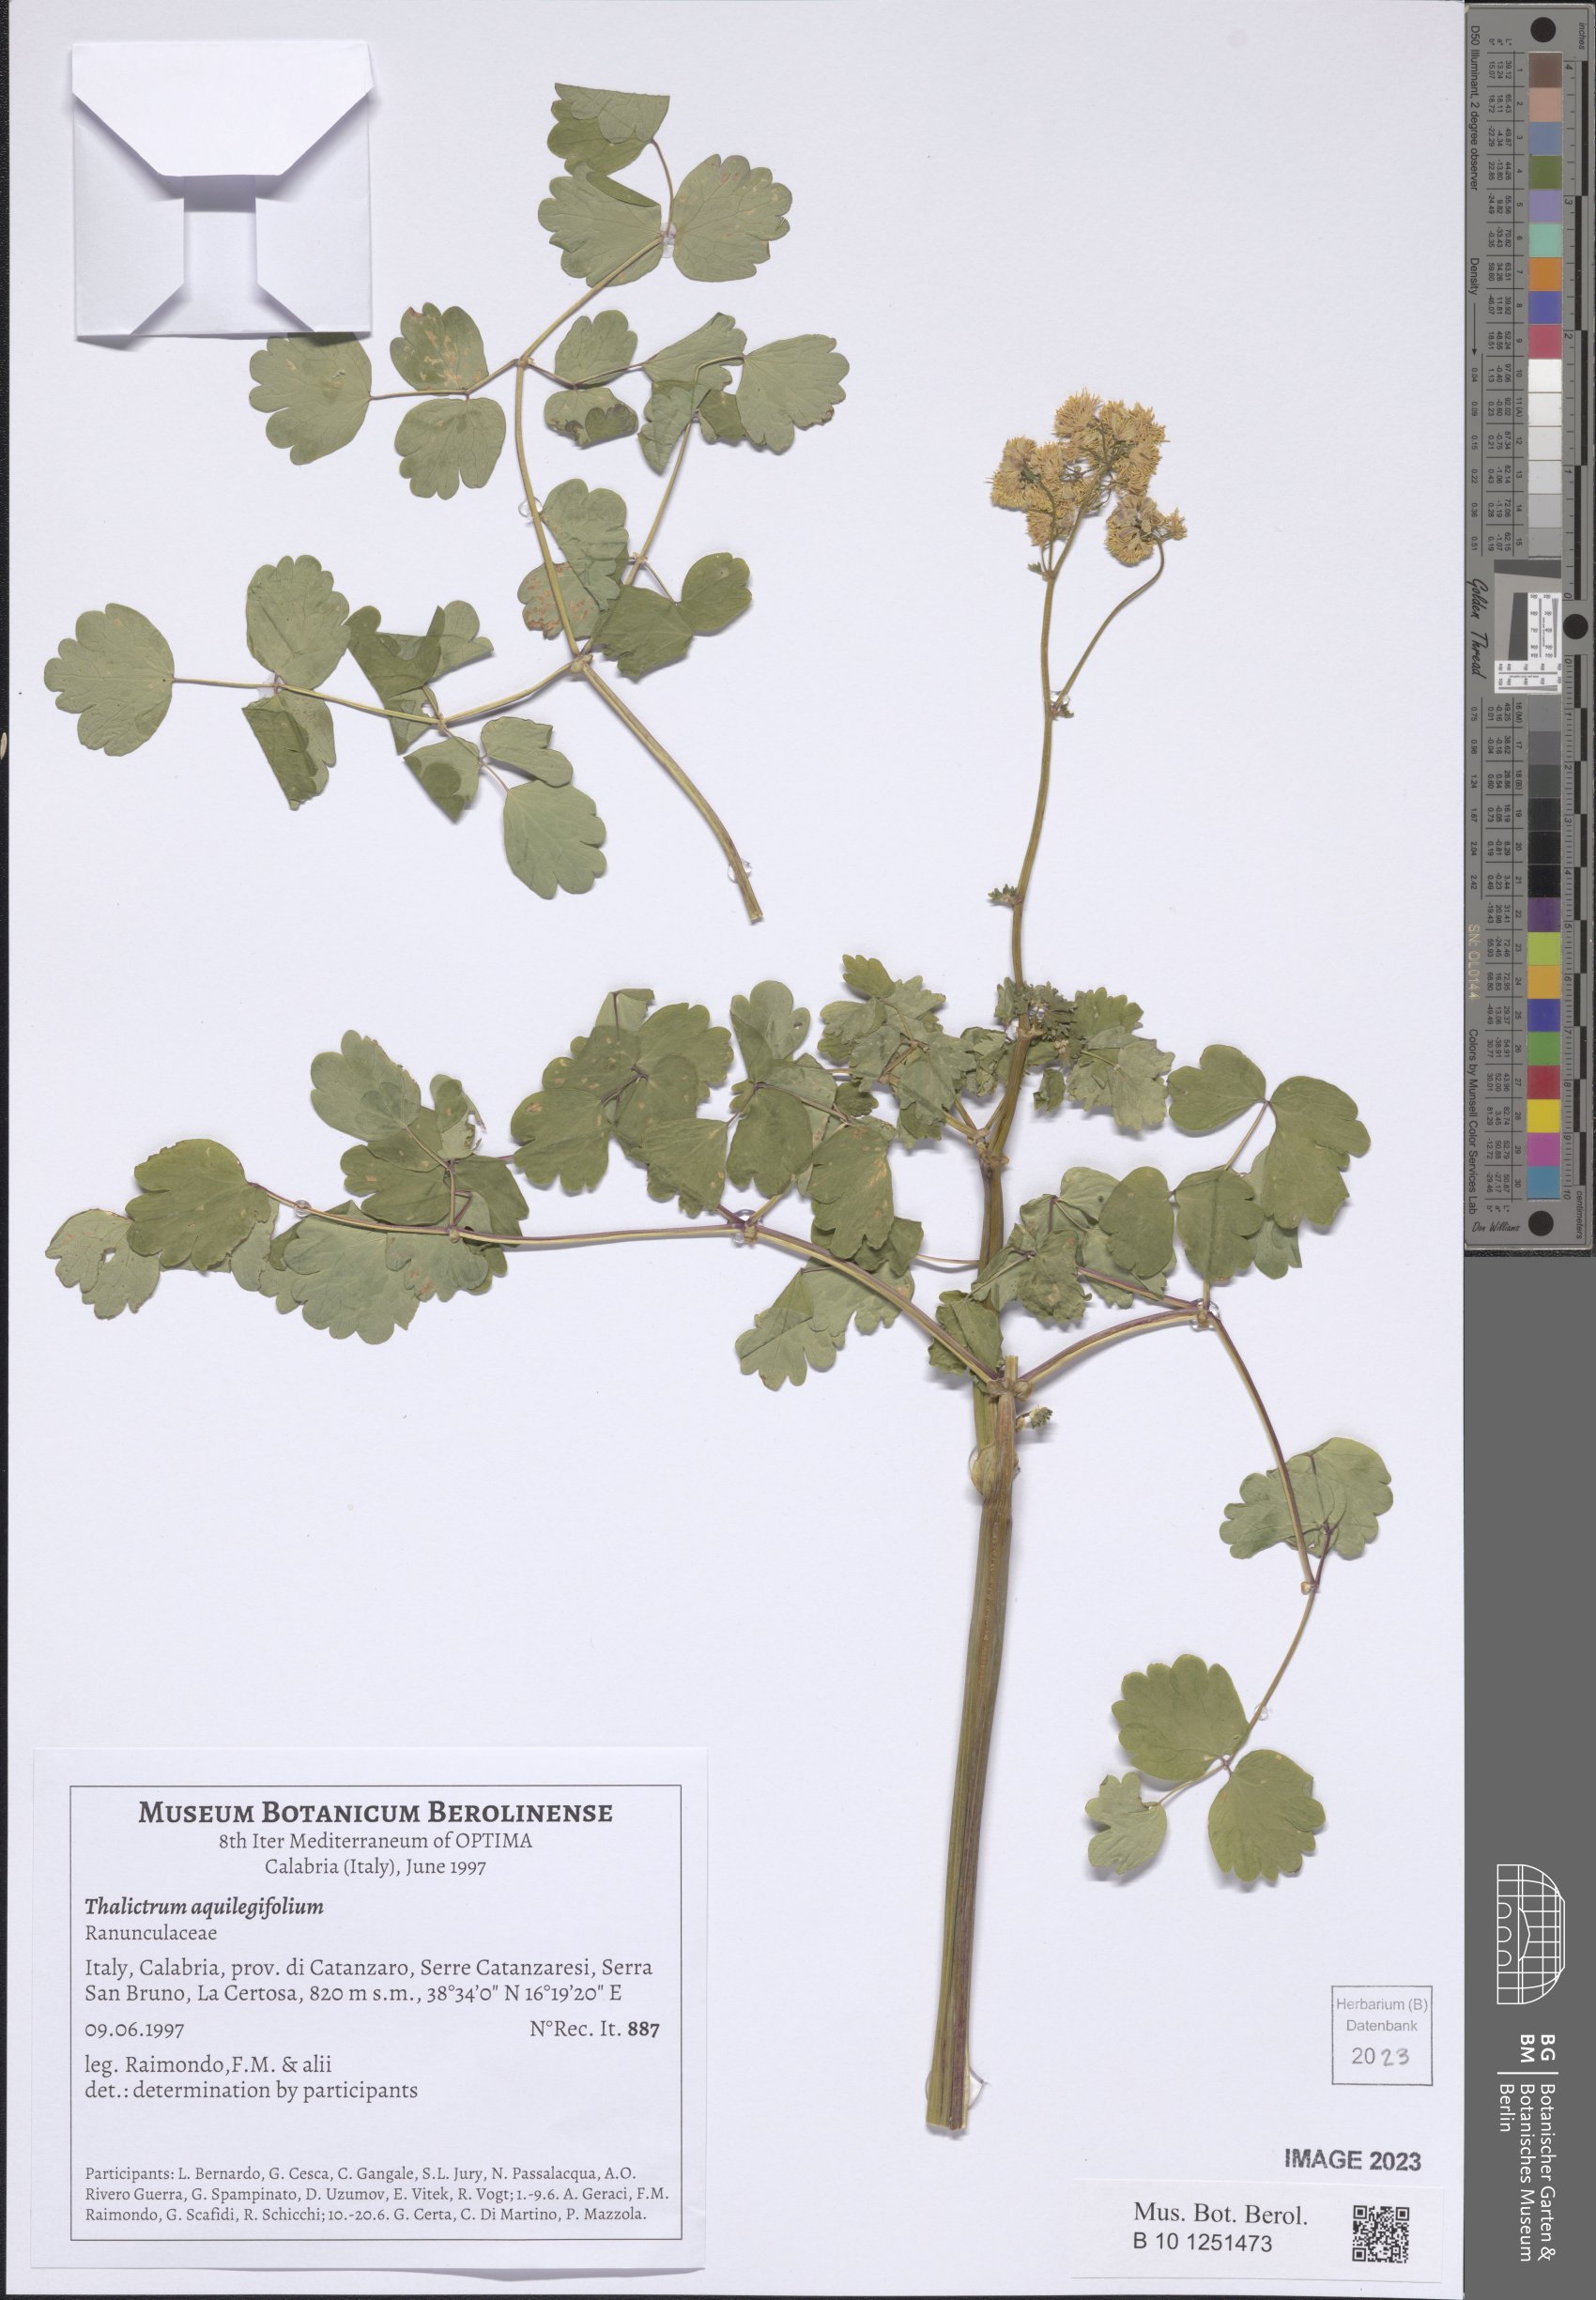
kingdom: Plantae
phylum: Tracheophyta
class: Magnoliopsida
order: Ranunculales
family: Ranunculaceae
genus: Thalictrum
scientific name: Thalictrum aquilegiifolium
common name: French meadow-rue
